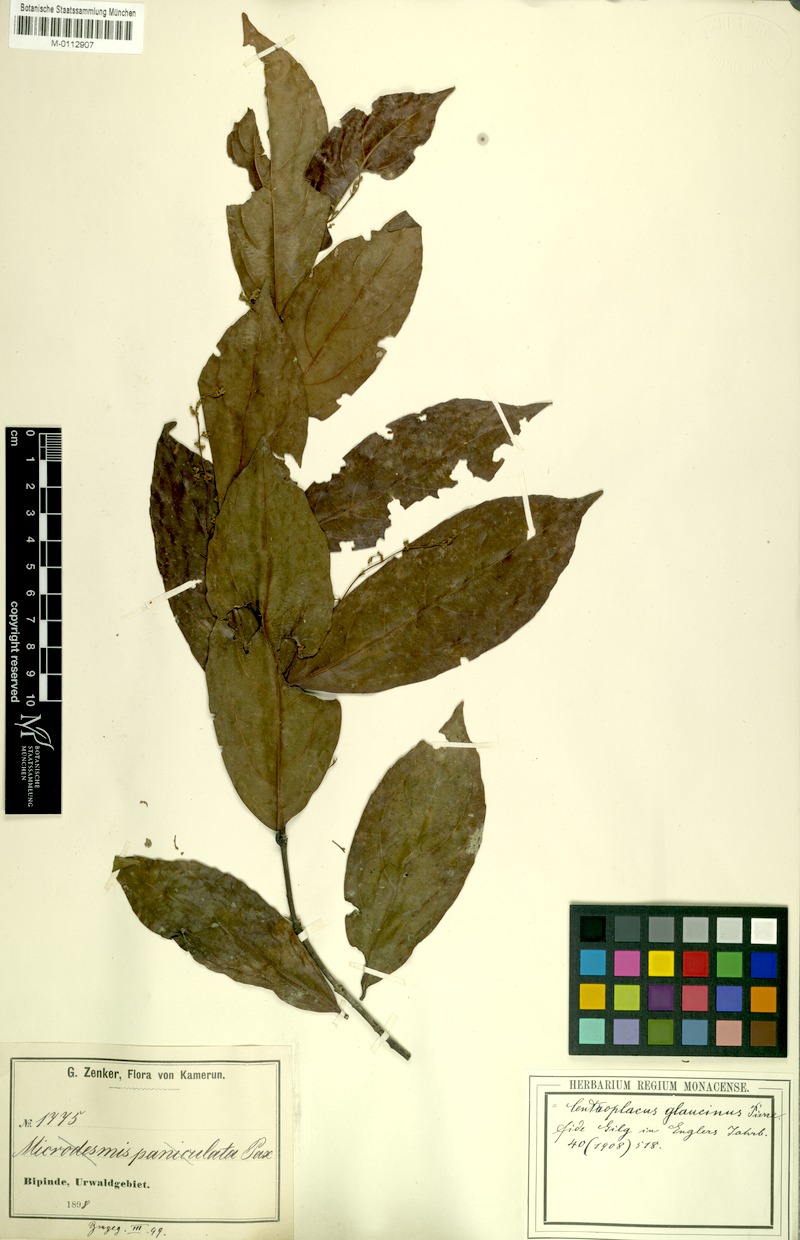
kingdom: Plantae
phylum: Tracheophyta
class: Magnoliopsida
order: Malpighiales
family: Centroplacaceae
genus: Centroplacus
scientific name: Centroplacus glaucinus
